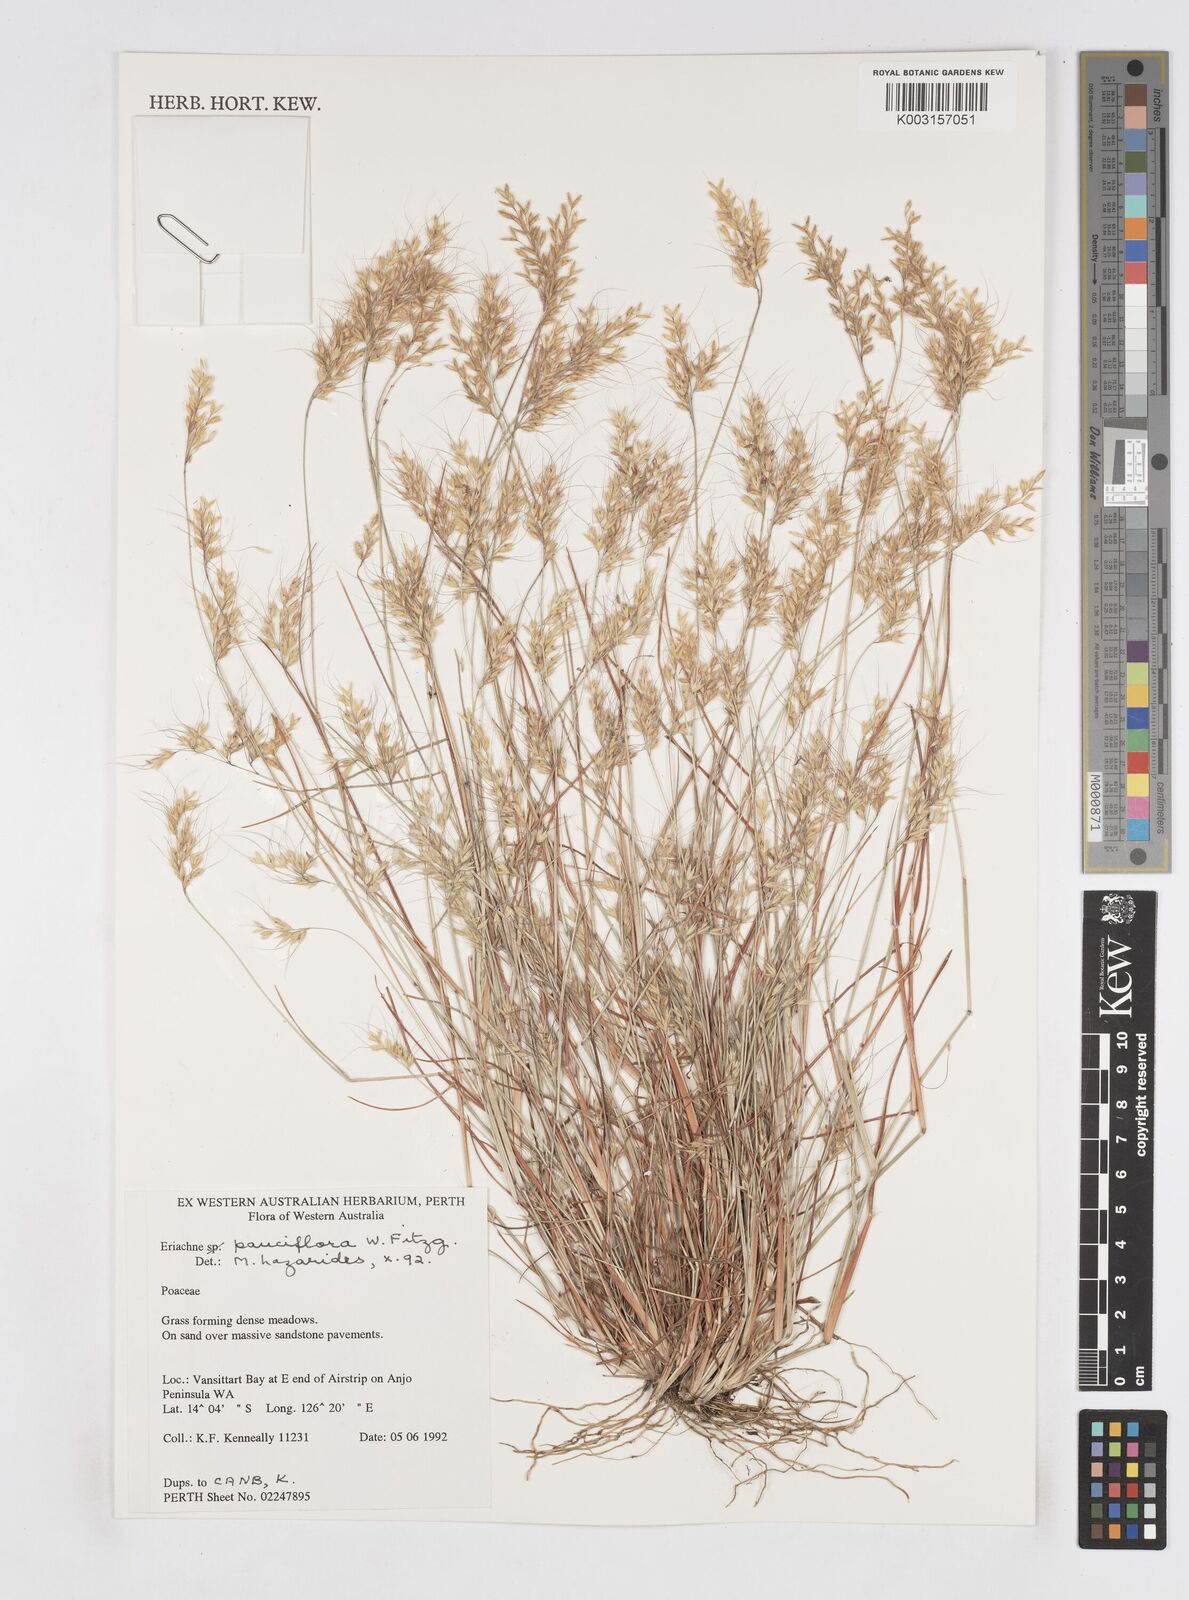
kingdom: Plantae
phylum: Tracheophyta
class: Liliopsida
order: Poales
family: Poaceae
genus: Eriachne
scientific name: Eriachne pauciflora
